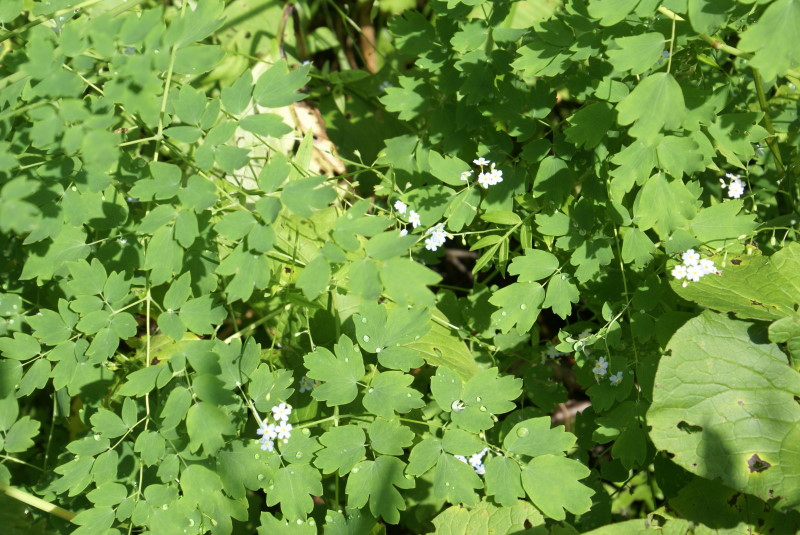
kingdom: Plantae
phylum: Tracheophyta
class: Magnoliopsida
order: Ranunculales
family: Ranunculaceae
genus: Thalictrum
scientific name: Thalictrum aquilegiifolium
